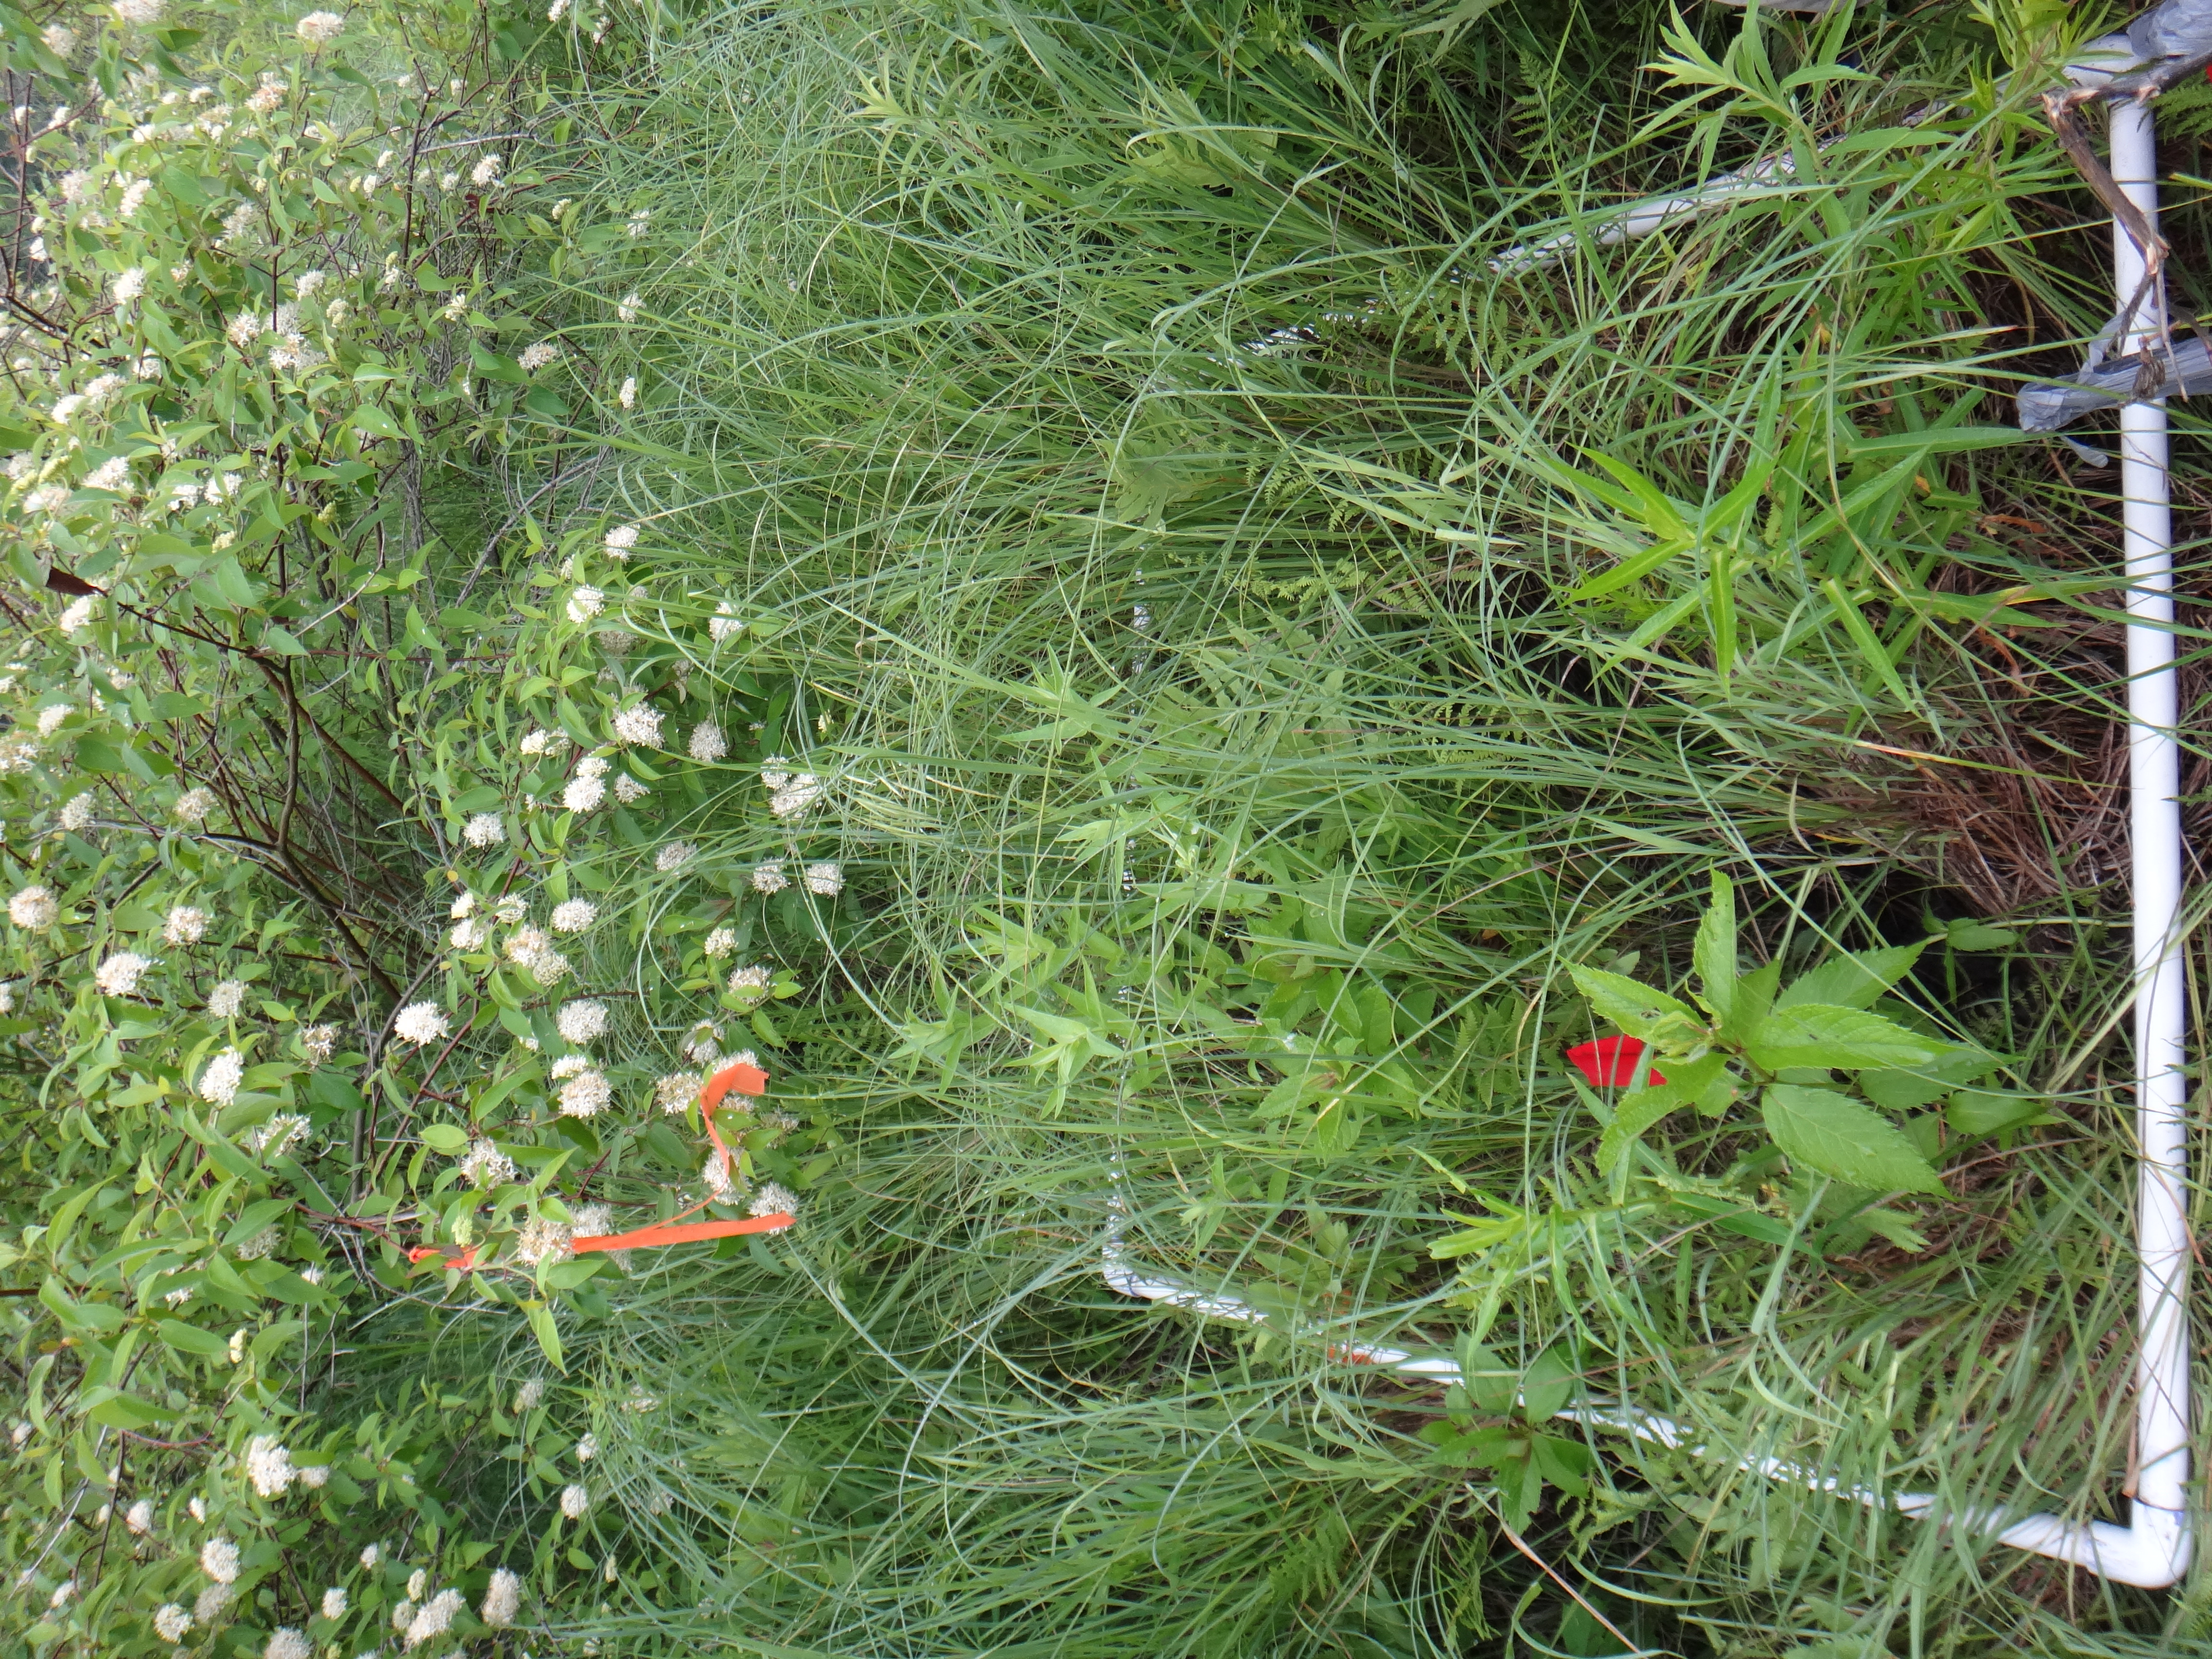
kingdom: Plantae
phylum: Tracheophyta
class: Polypodiopsida
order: Polypodiales
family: Thelypteridaceae
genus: Thelypteris
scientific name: Thelypteris palustris
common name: Marsh fern
